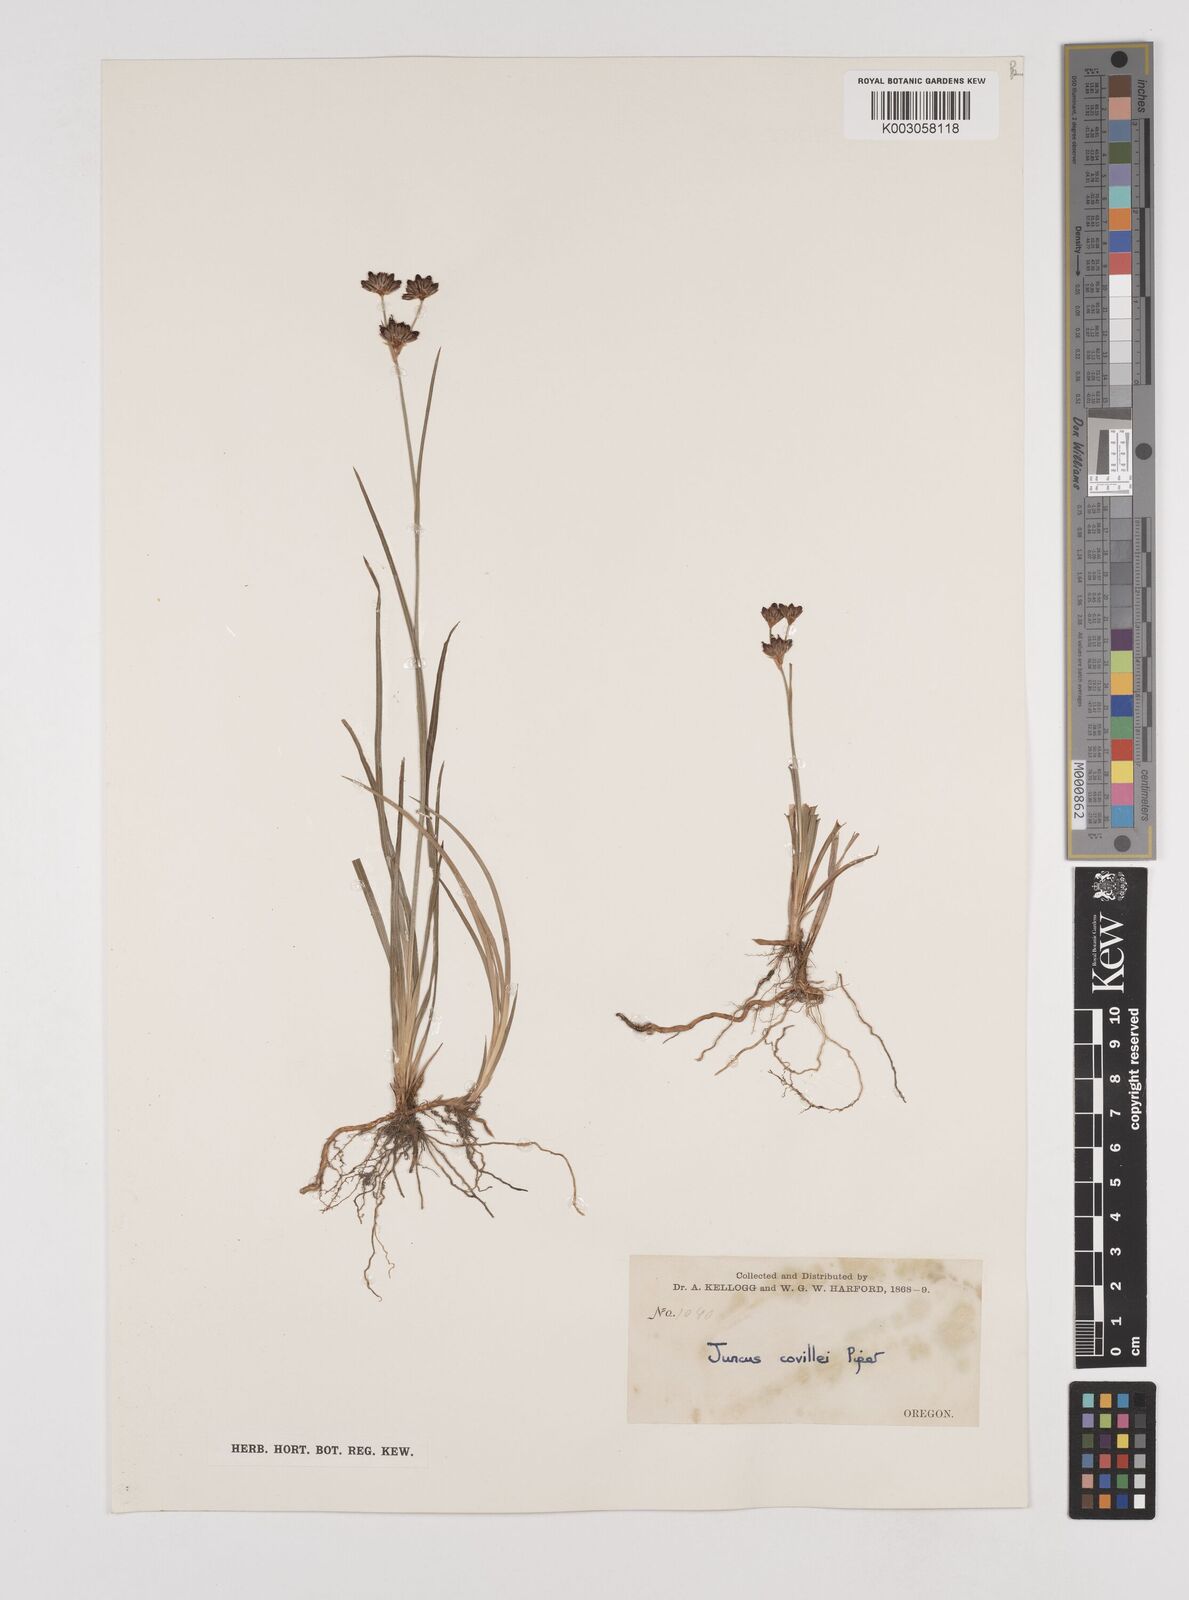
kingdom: Plantae
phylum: Tracheophyta
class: Liliopsida
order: Poales
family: Juncaceae
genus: Juncus
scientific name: Juncus covillei
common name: Coville's rush
